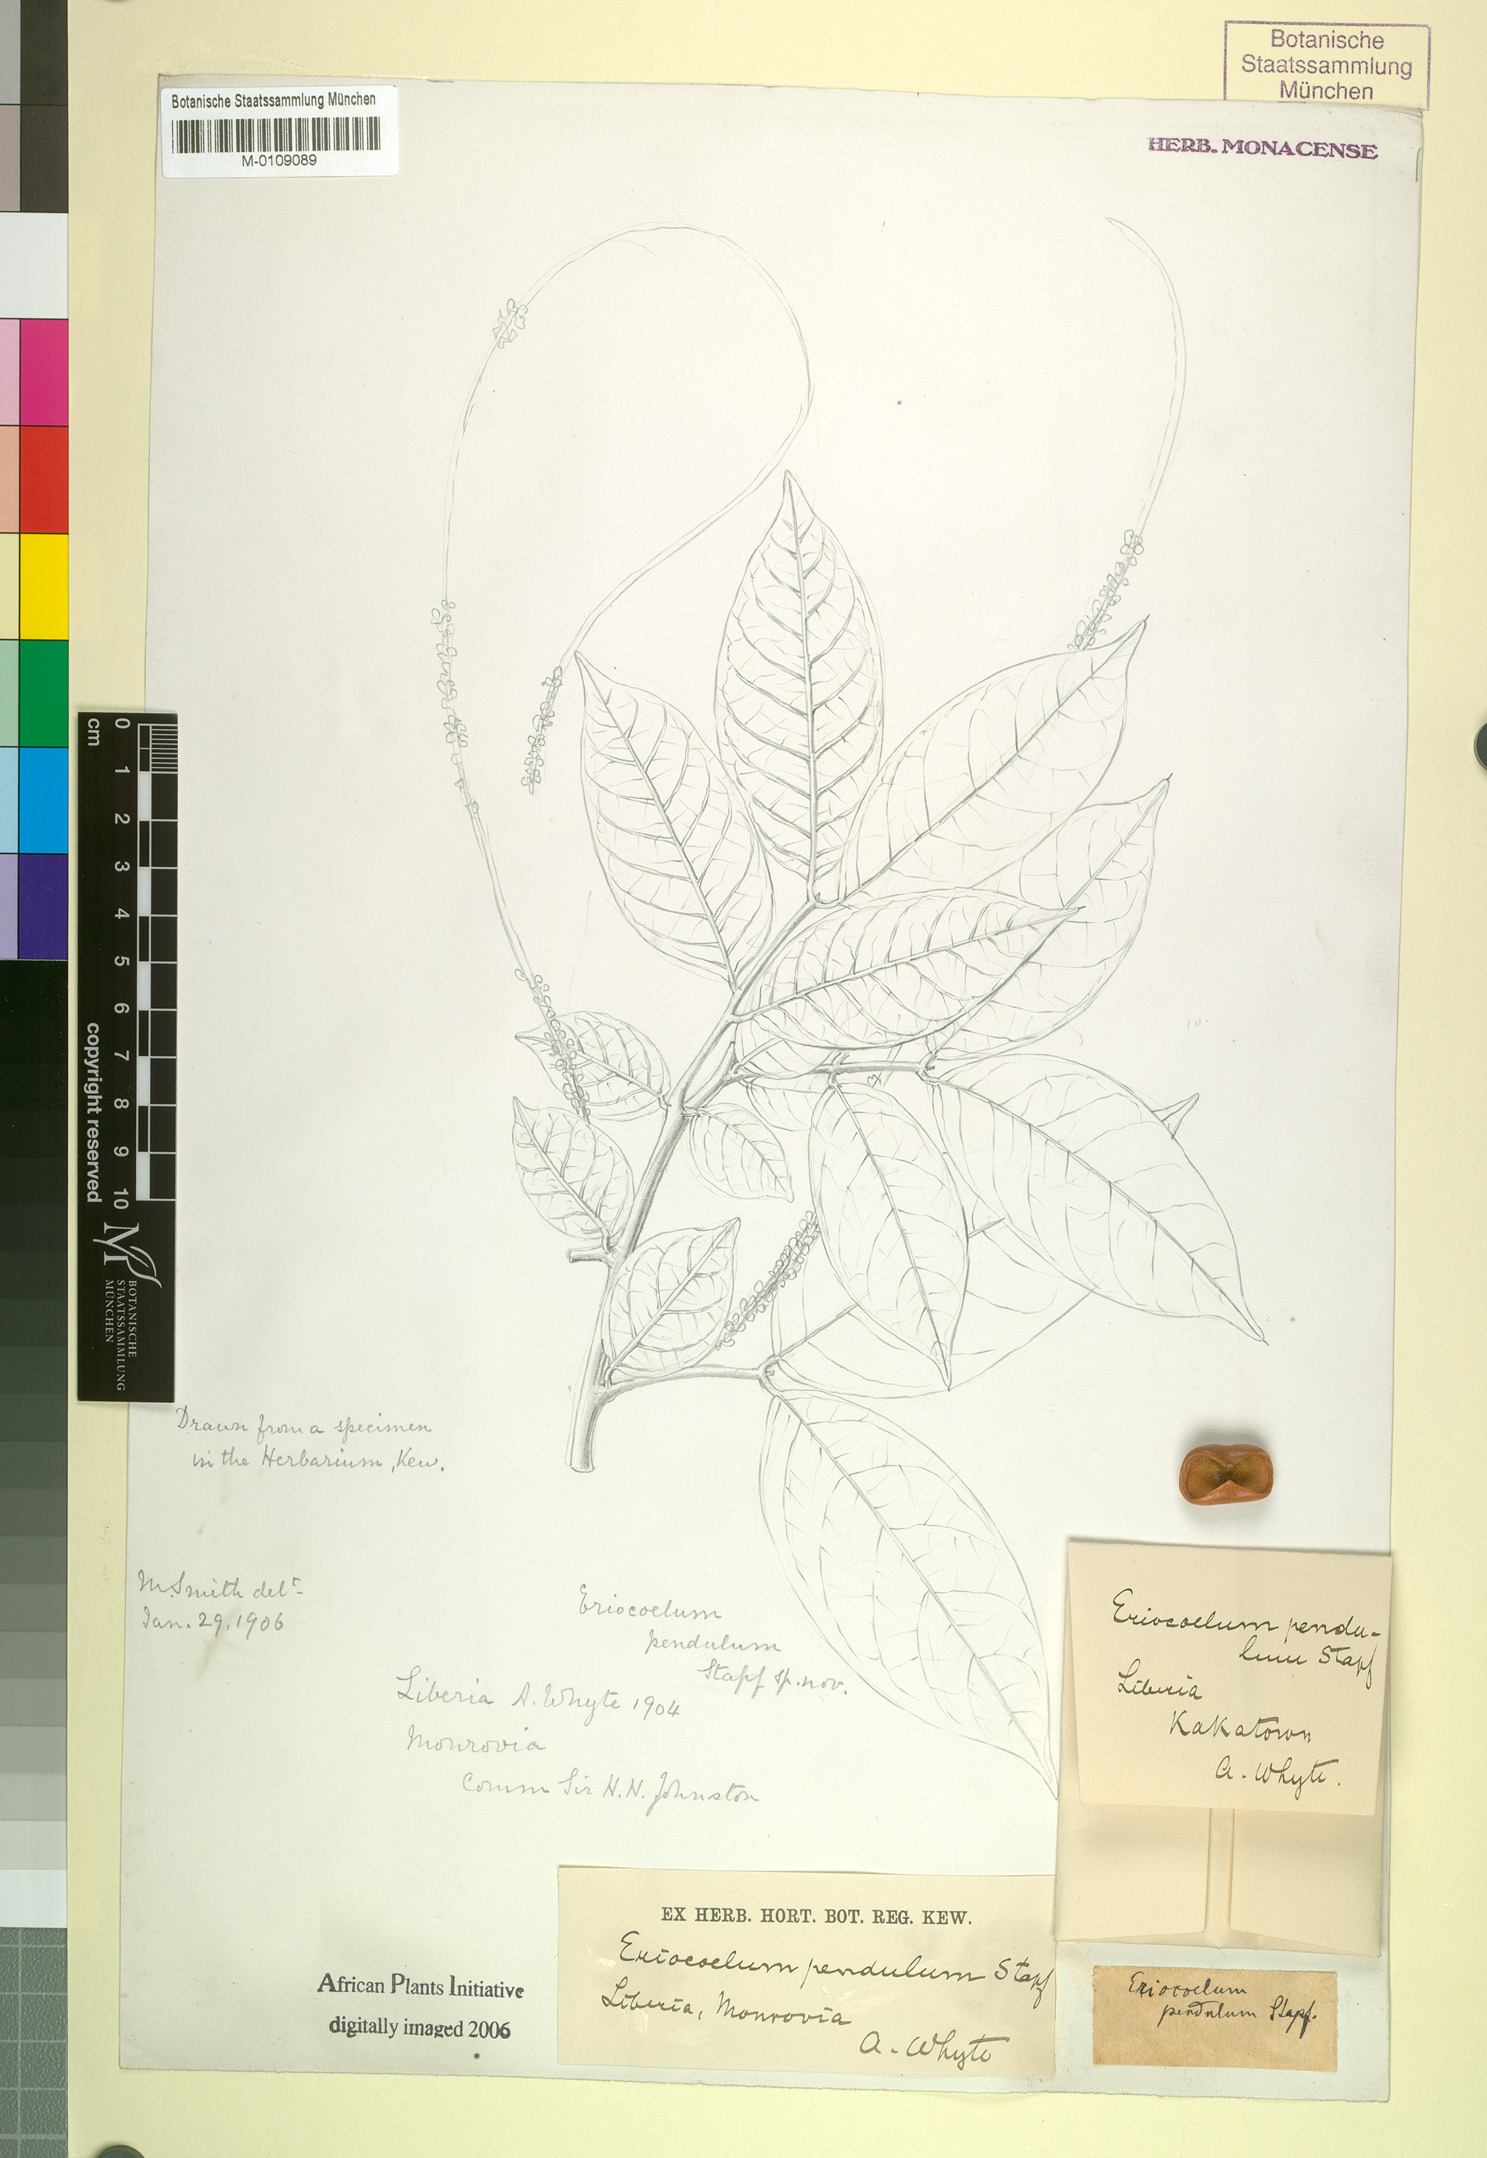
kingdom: Plantae
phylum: Tracheophyta
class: Magnoliopsida
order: Sapindales
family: Sapindaceae
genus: Eriocoelum
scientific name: Eriocoelum racemosum
